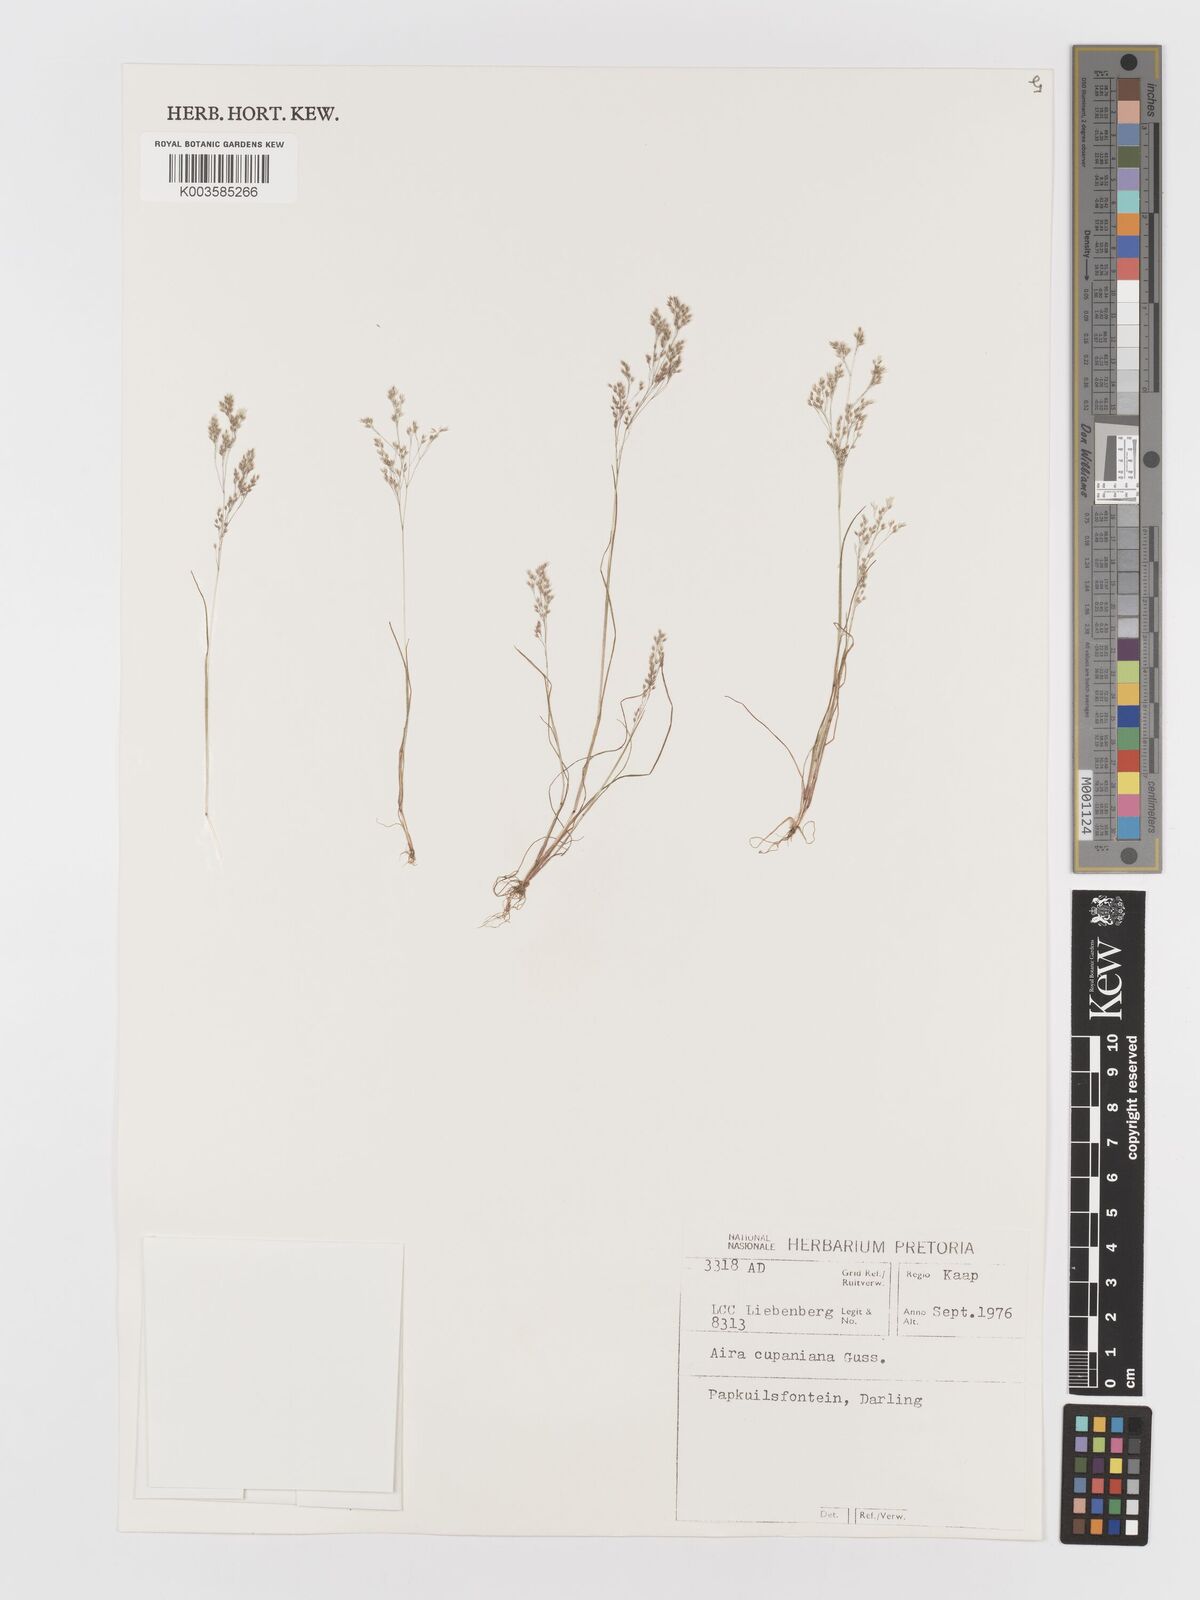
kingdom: Plantae
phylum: Tracheophyta
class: Liliopsida
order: Poales
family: Poaceae
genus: Aira
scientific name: Aira cupaniana
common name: Silver hairgrass
